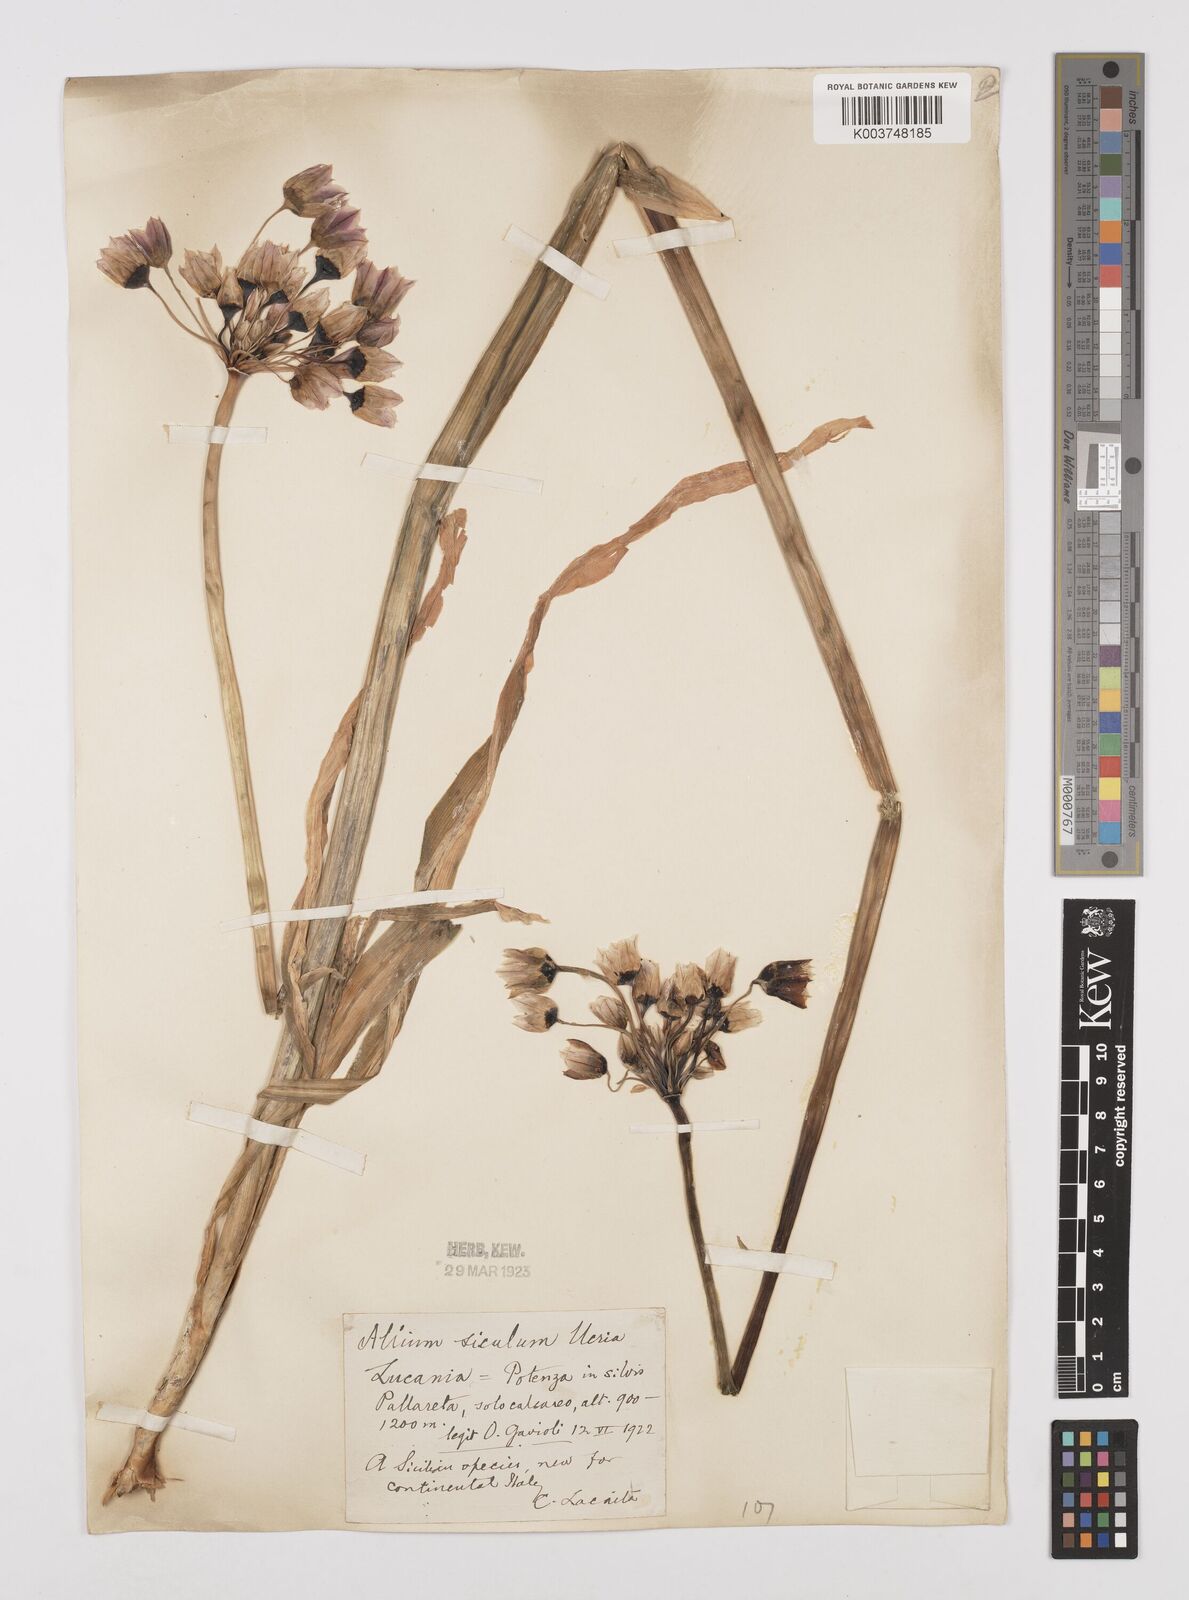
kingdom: Plantae
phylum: Tracheophyta
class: Liliopsida
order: Asparagales
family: Amaryllidaceae
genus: Allium
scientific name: Allium siculum
